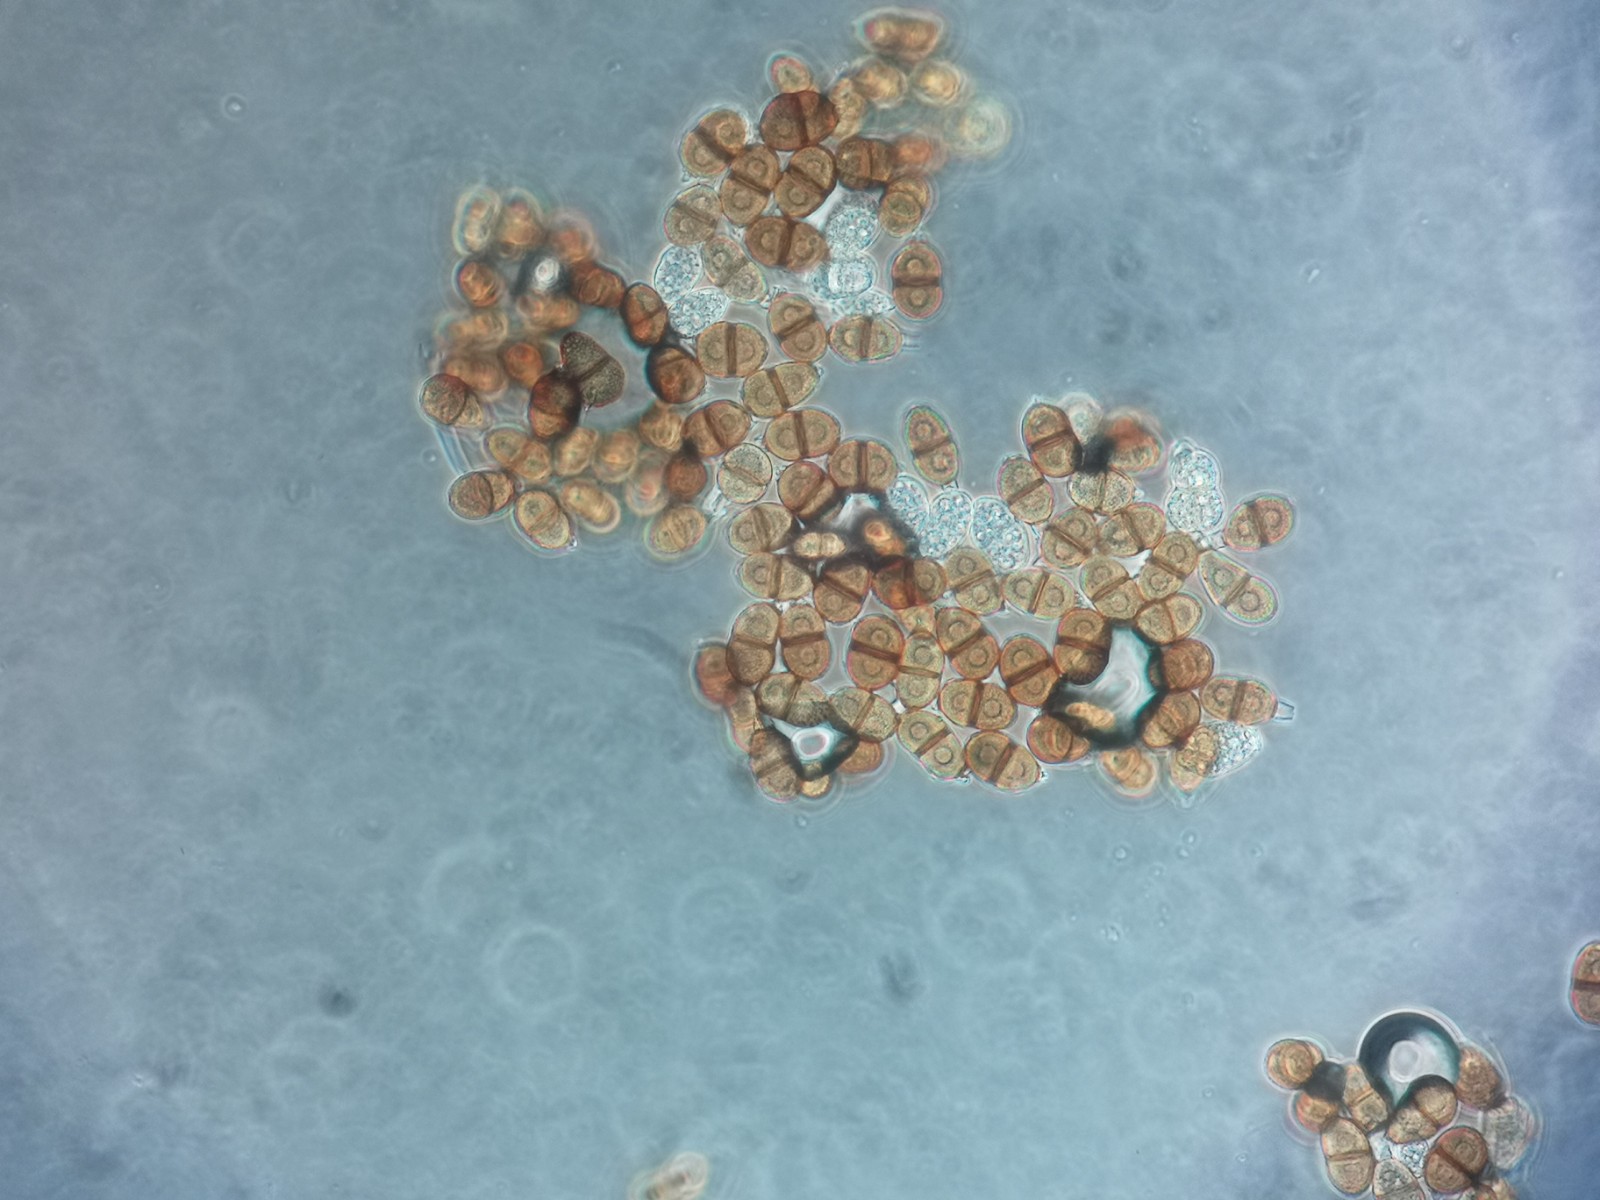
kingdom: Fungi
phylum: Basidiomycota
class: Pucciniomycetes
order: Pucciniales
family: Pucciniaceae
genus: Puccinia
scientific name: Puccinia suaveolens
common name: tidsel-tvecellerust
